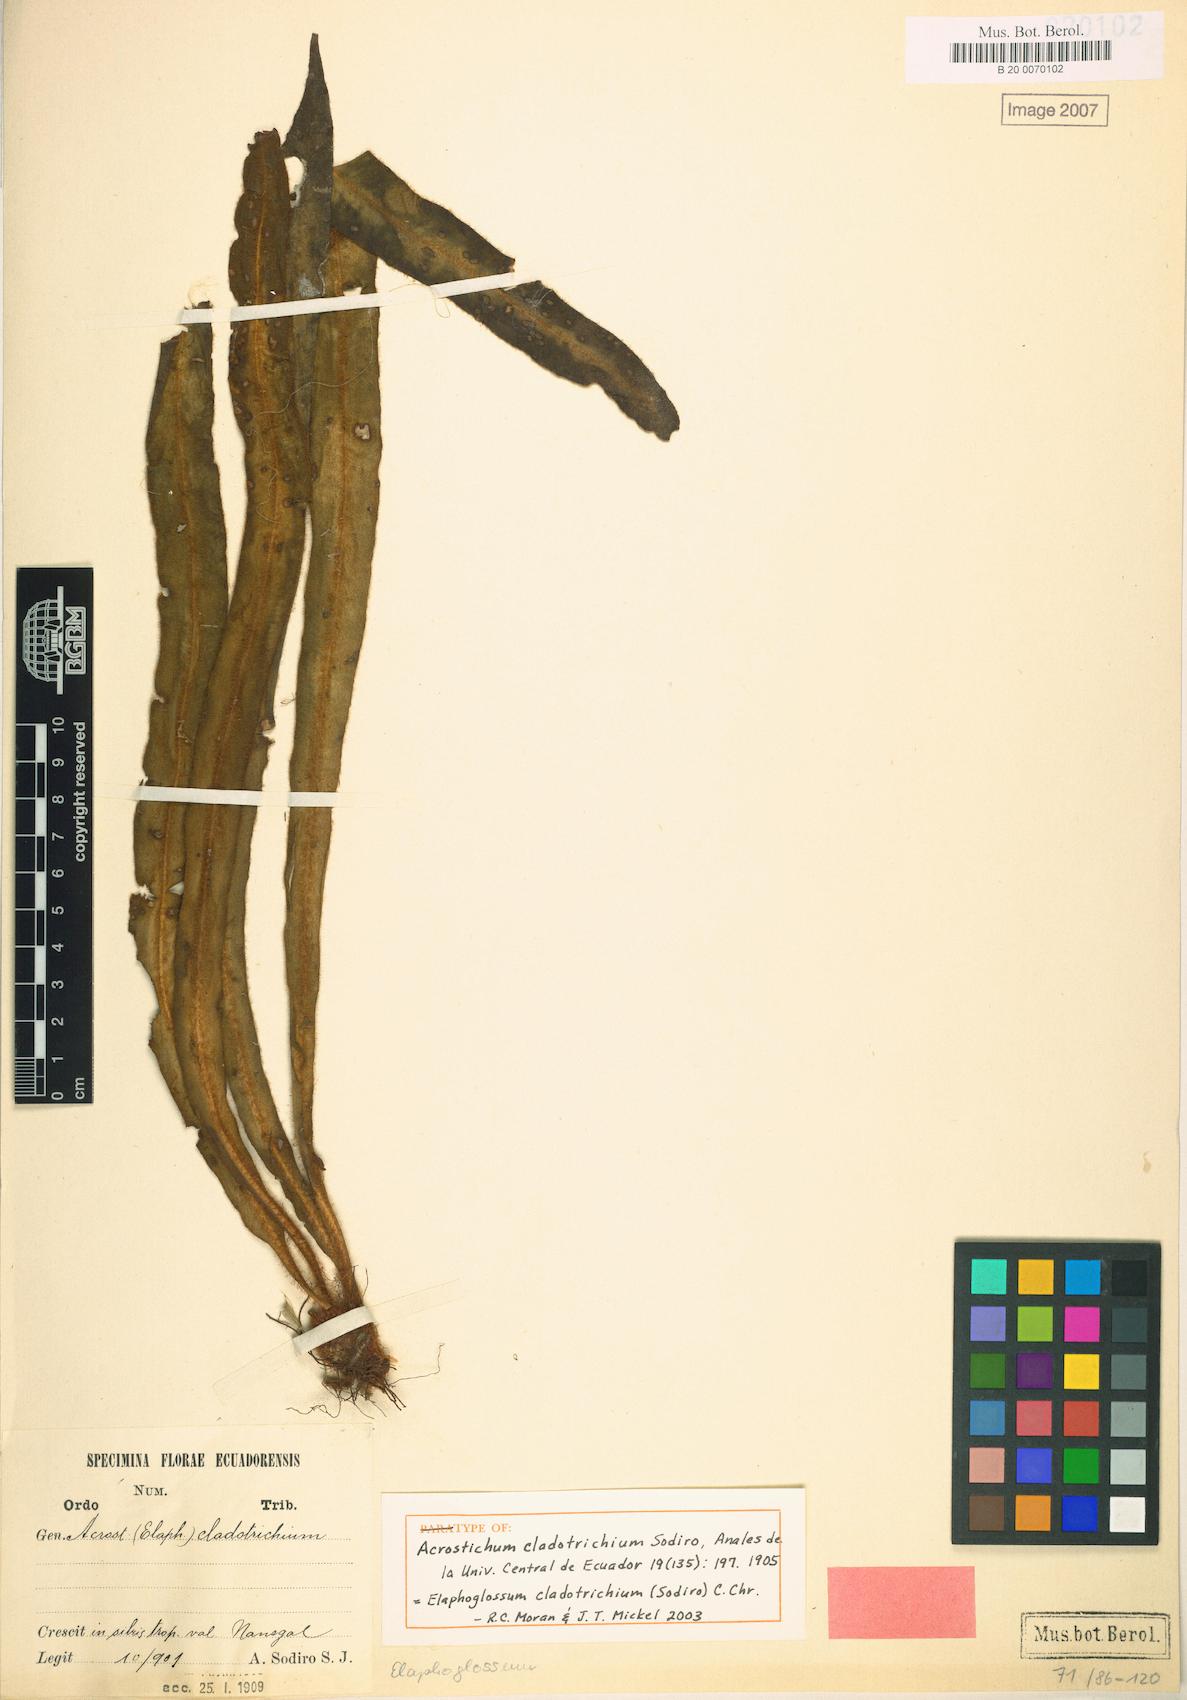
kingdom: Plantae
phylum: Tracheophyta
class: Polypodiopsida
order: Polypodiales
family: Dryopteridaceae
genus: Elaphoglossum
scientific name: Elaphoglossum auricomum
